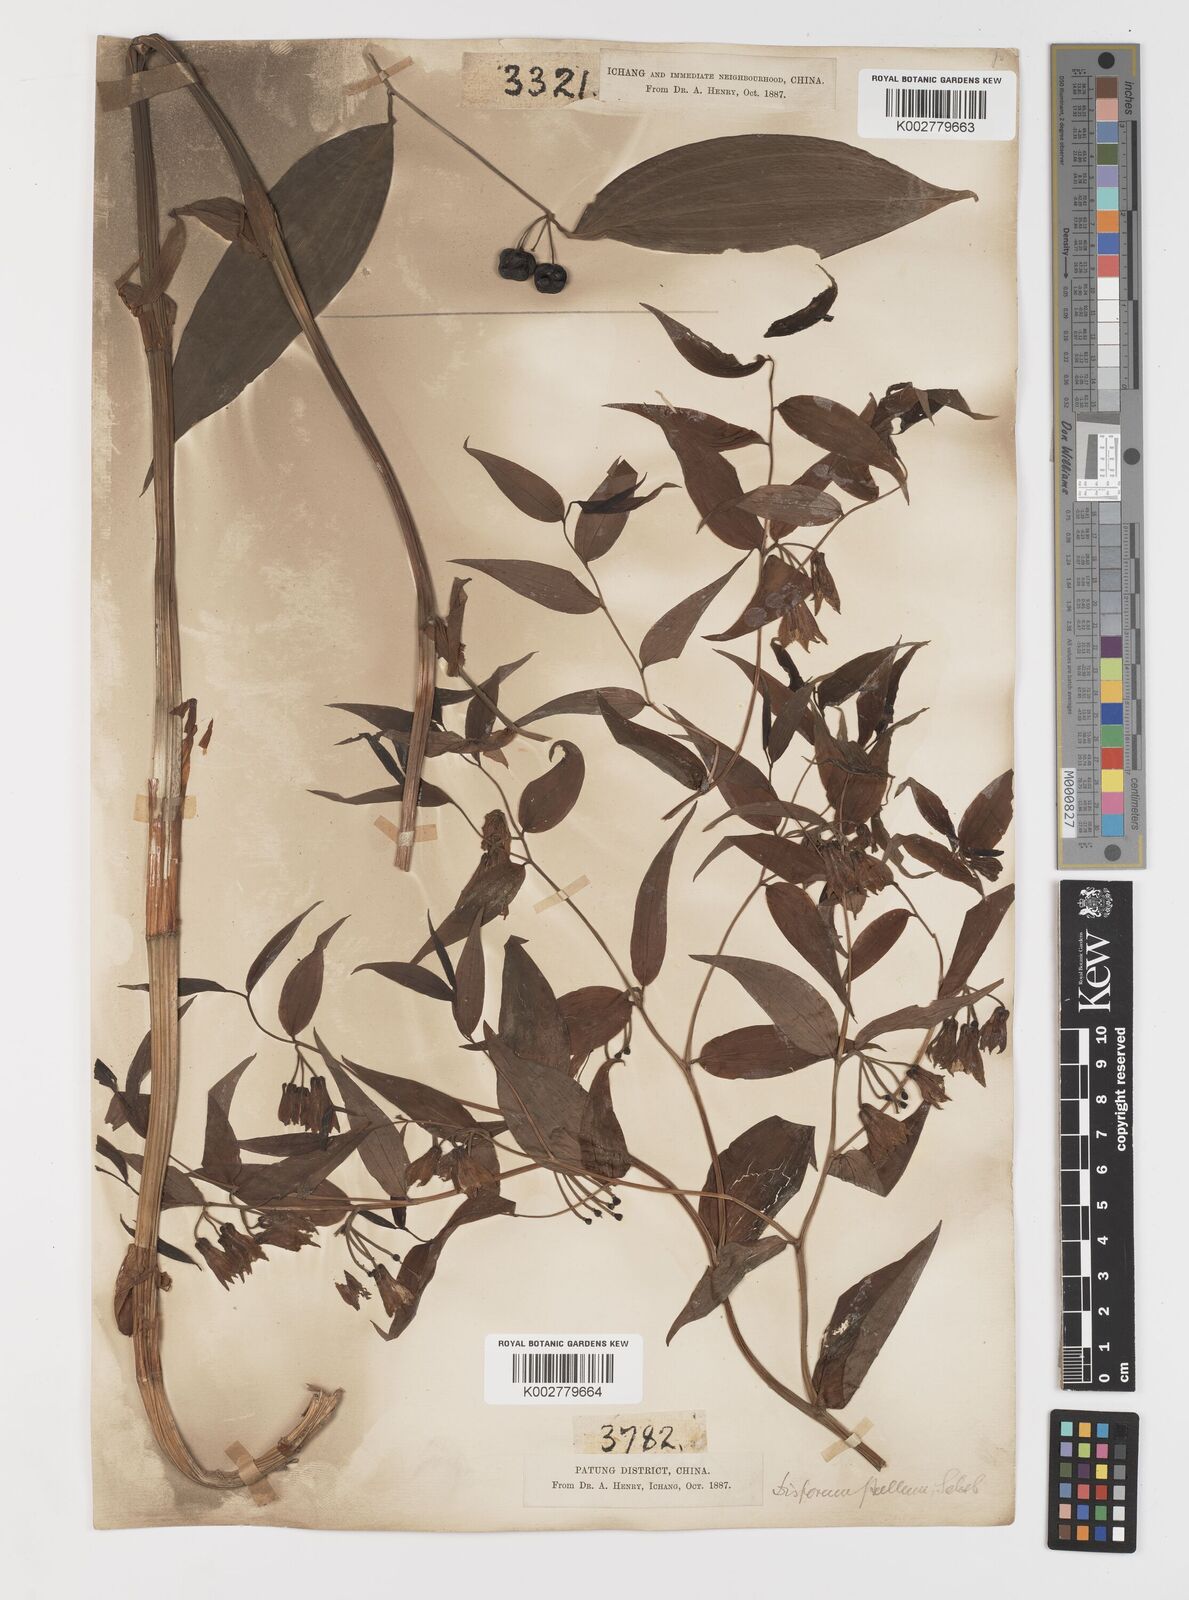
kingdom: Plantae
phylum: Tracheophyta
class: Liliopsida
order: Liliales
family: Colchicaceae
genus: Disporum
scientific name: Disporum cantoniense
